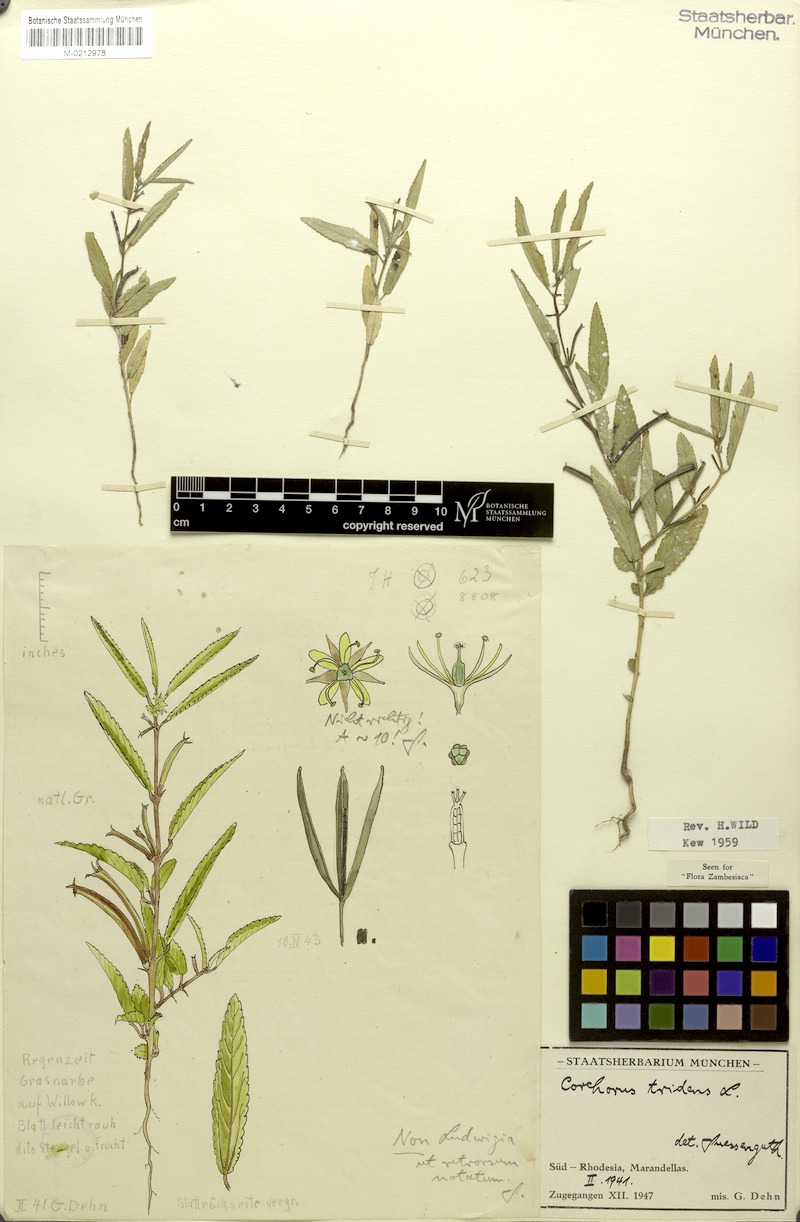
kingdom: Plantae
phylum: Tracheophyta
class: Magnoliopsida
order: Malvales
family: Malvaceae
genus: Corchorus
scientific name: Corchorus tridens
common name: Wild jute
